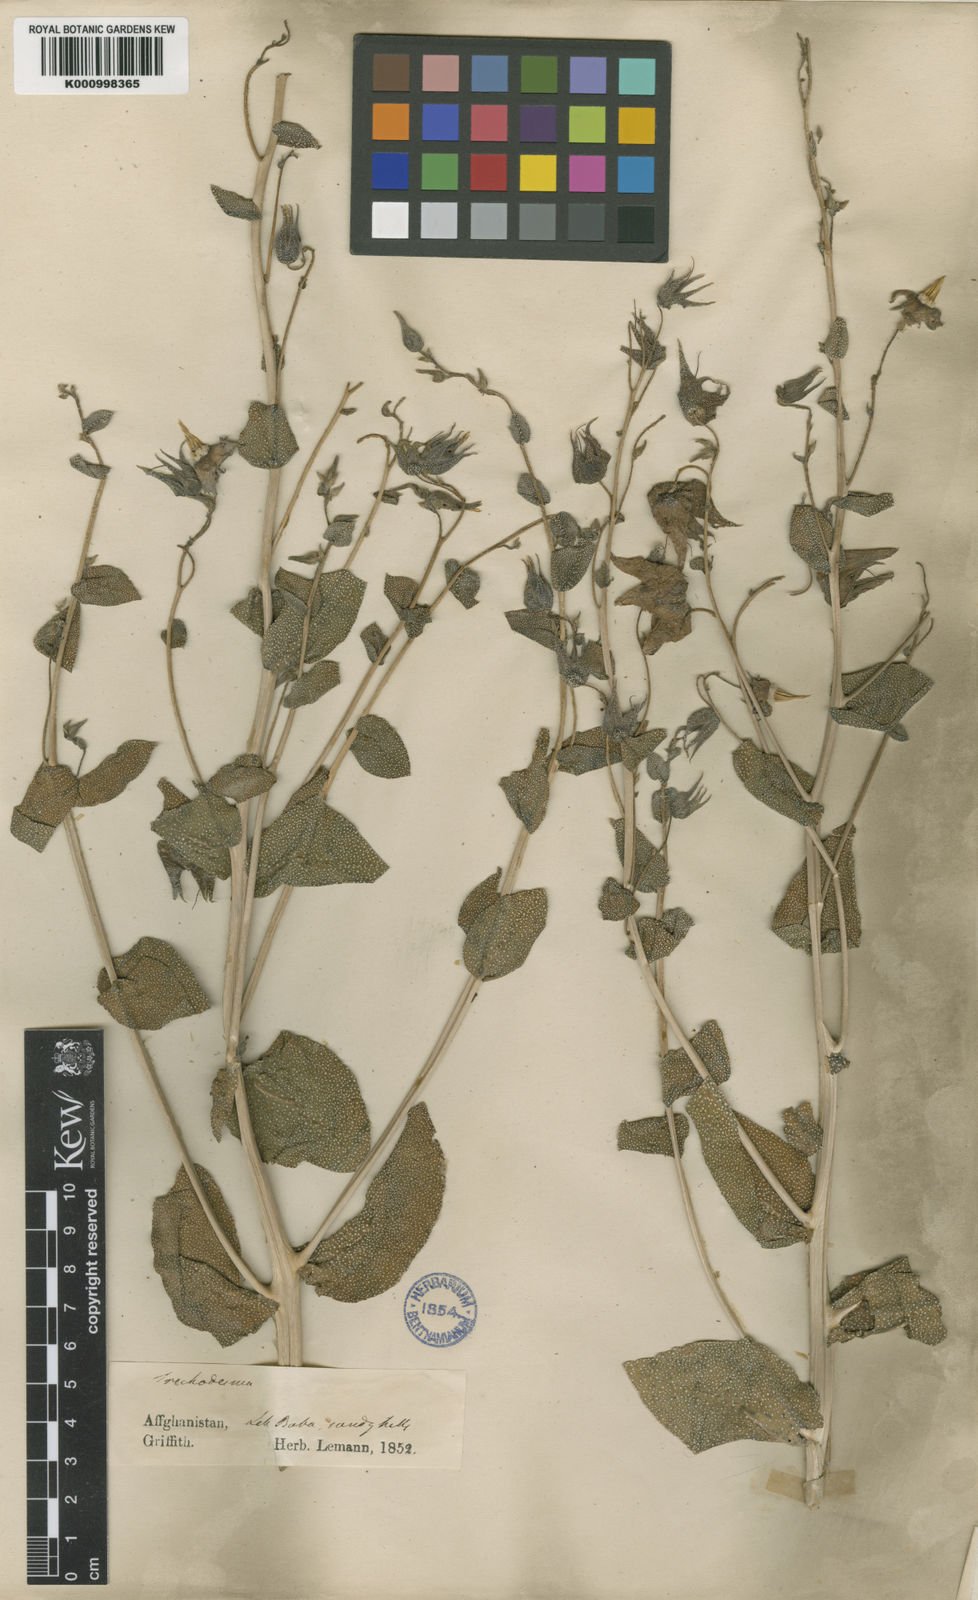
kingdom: Plantae
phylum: Tracheophyta
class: Magnoliopsida
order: Boraginales
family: Boraginaceae
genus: Trichodesma
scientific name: Trichodesma incanum
